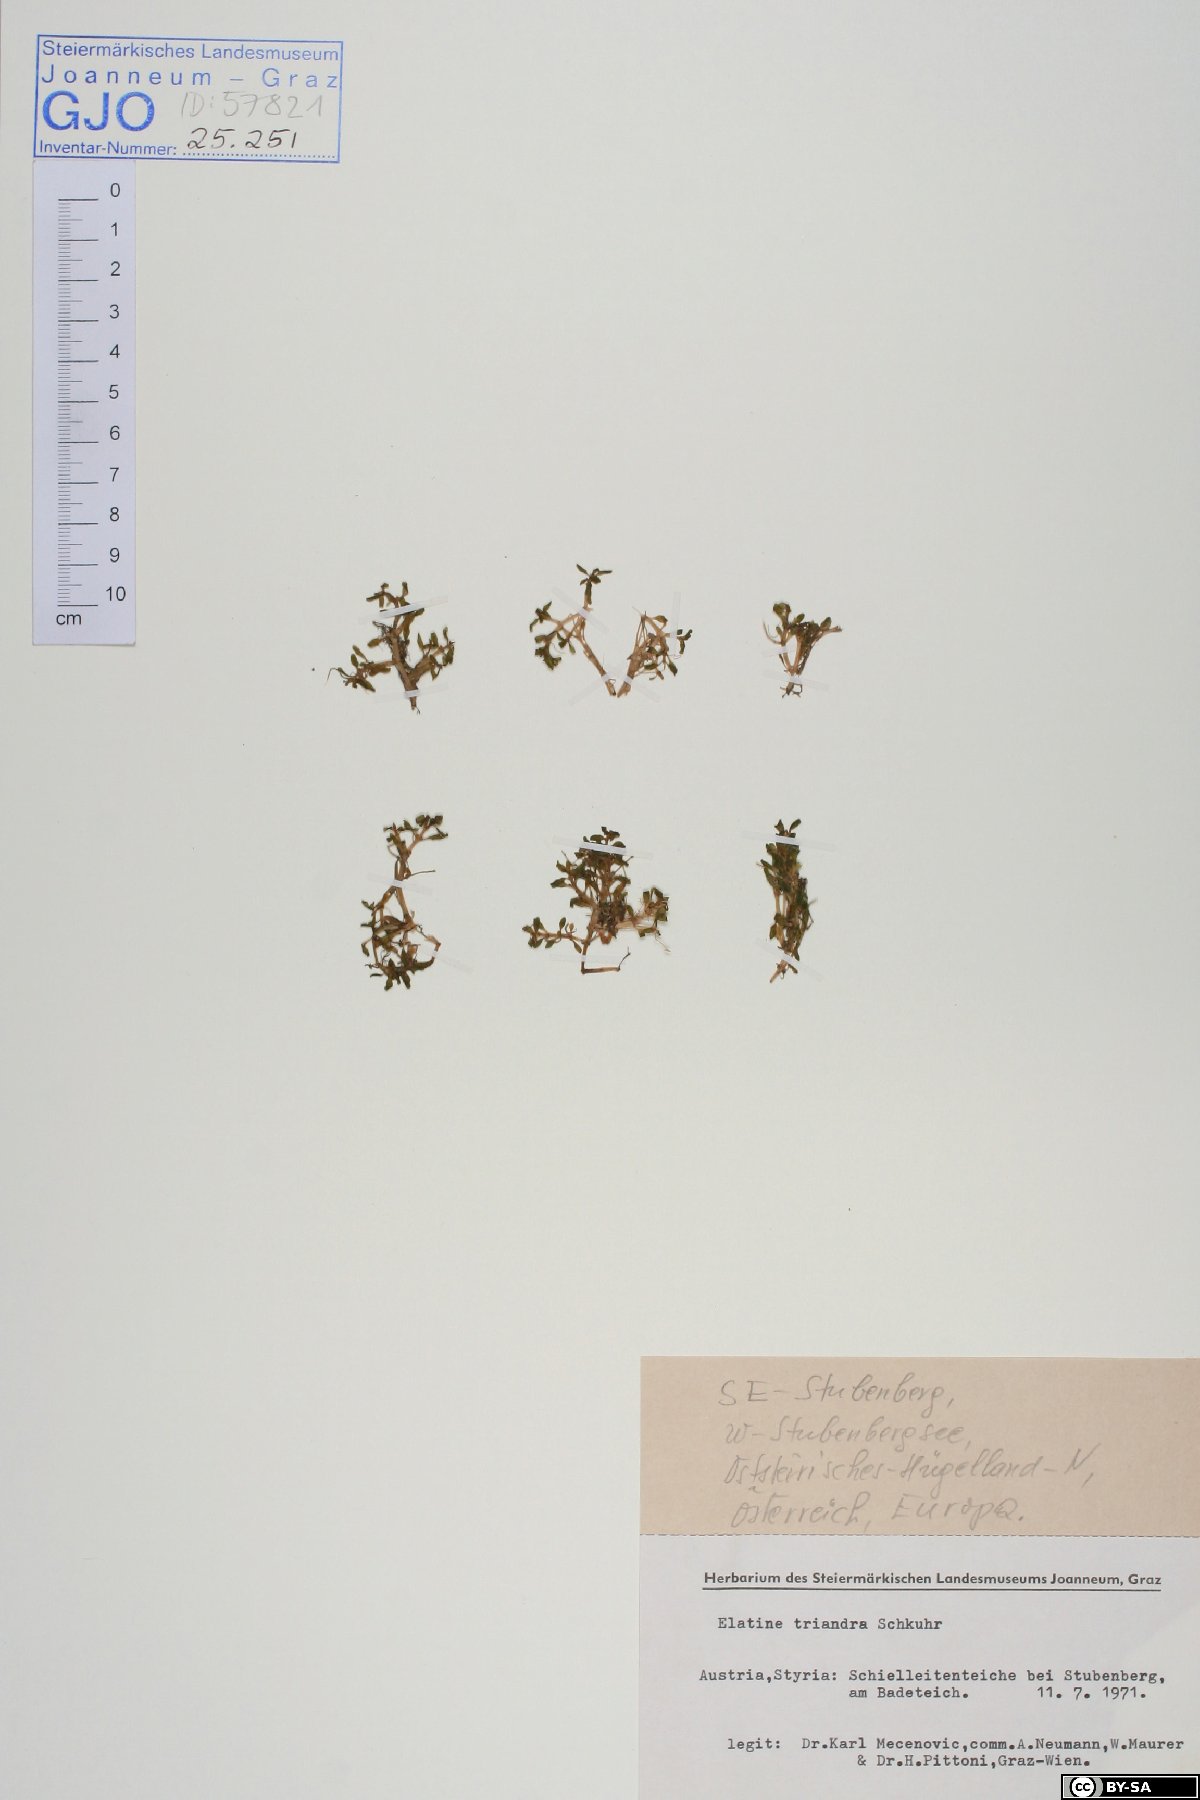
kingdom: Plantae
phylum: Tracheophyta
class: Magnoliopsida
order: Malpighiales
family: Elatinaceae
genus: Elatine
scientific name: Elatine triandra
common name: Three-stamened waterwort
